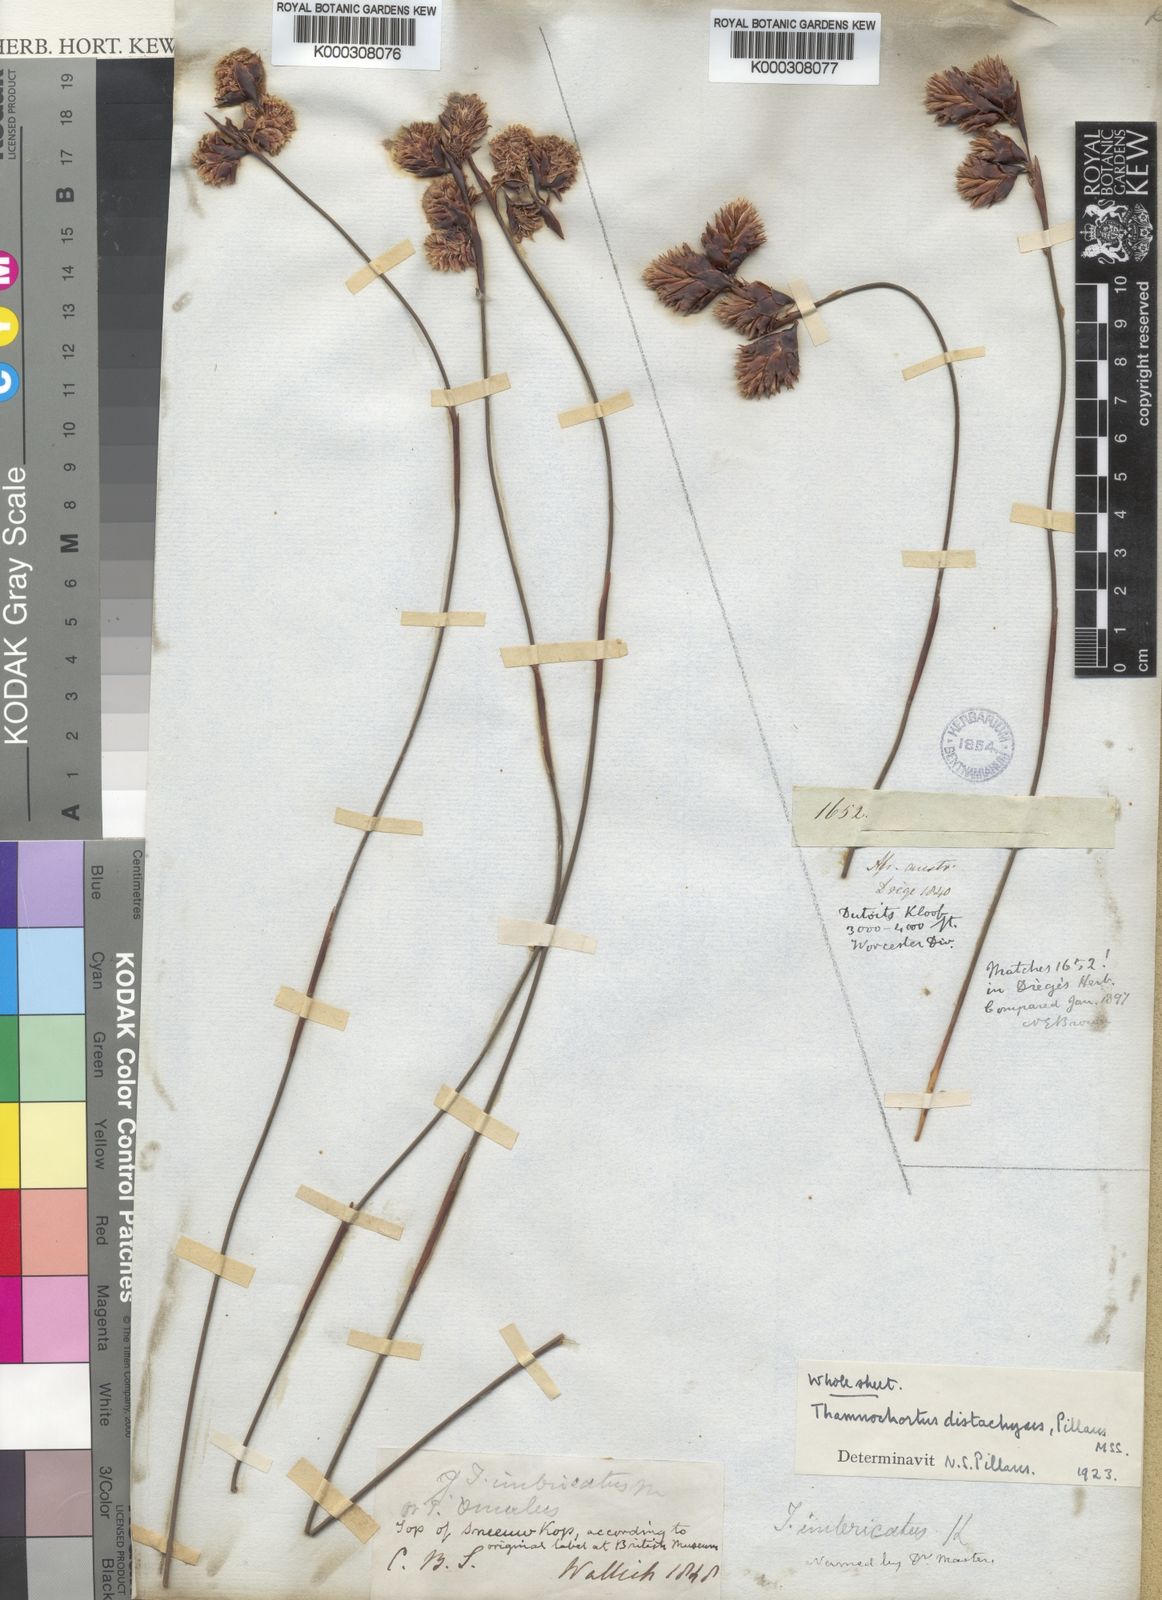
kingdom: Plantae
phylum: Tracheophyta
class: Liliopsida
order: Poales
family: Restionaceae
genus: Staberoha
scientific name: Staberoha aemula
